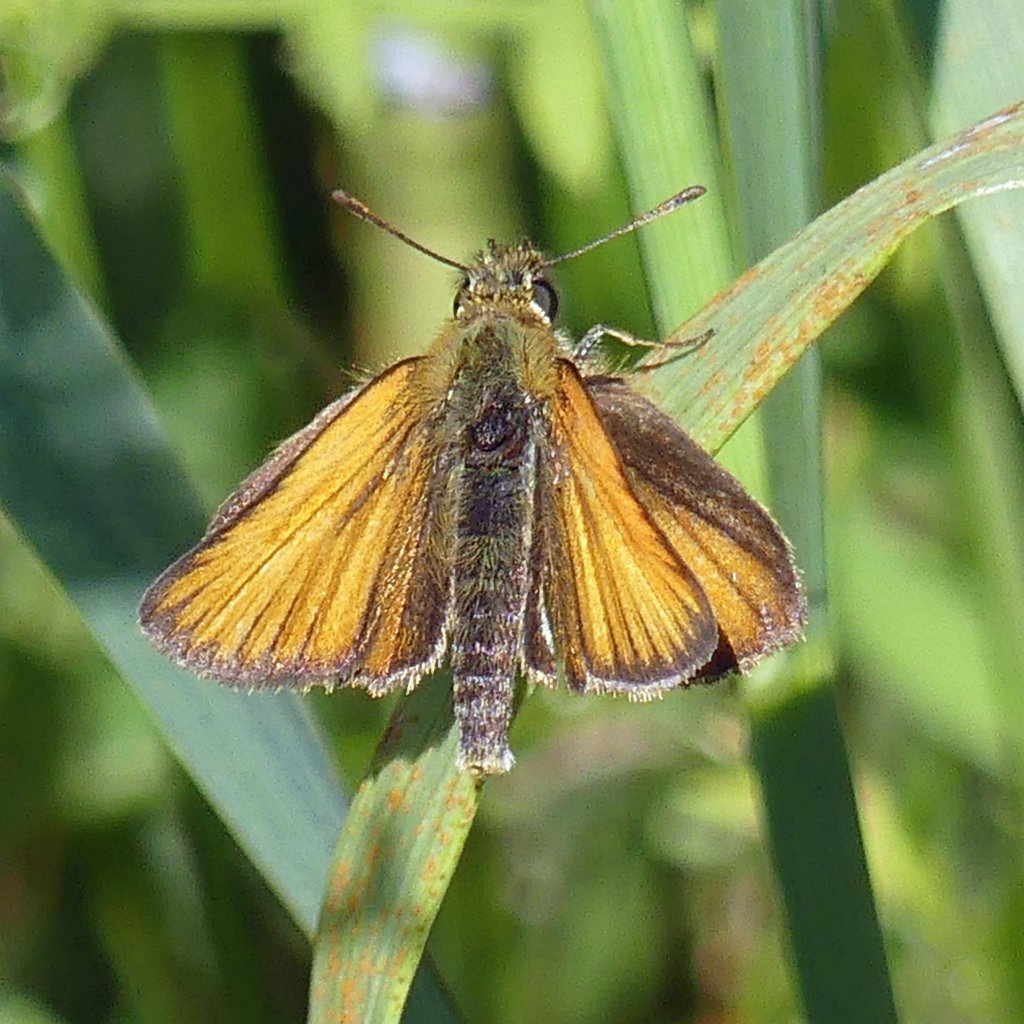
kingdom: Animalia
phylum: Arthropoda
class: Insecta
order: Lepidoptera
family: Hesperiidae
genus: Thymelicus
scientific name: Thymelicus lineola
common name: European Skipper
